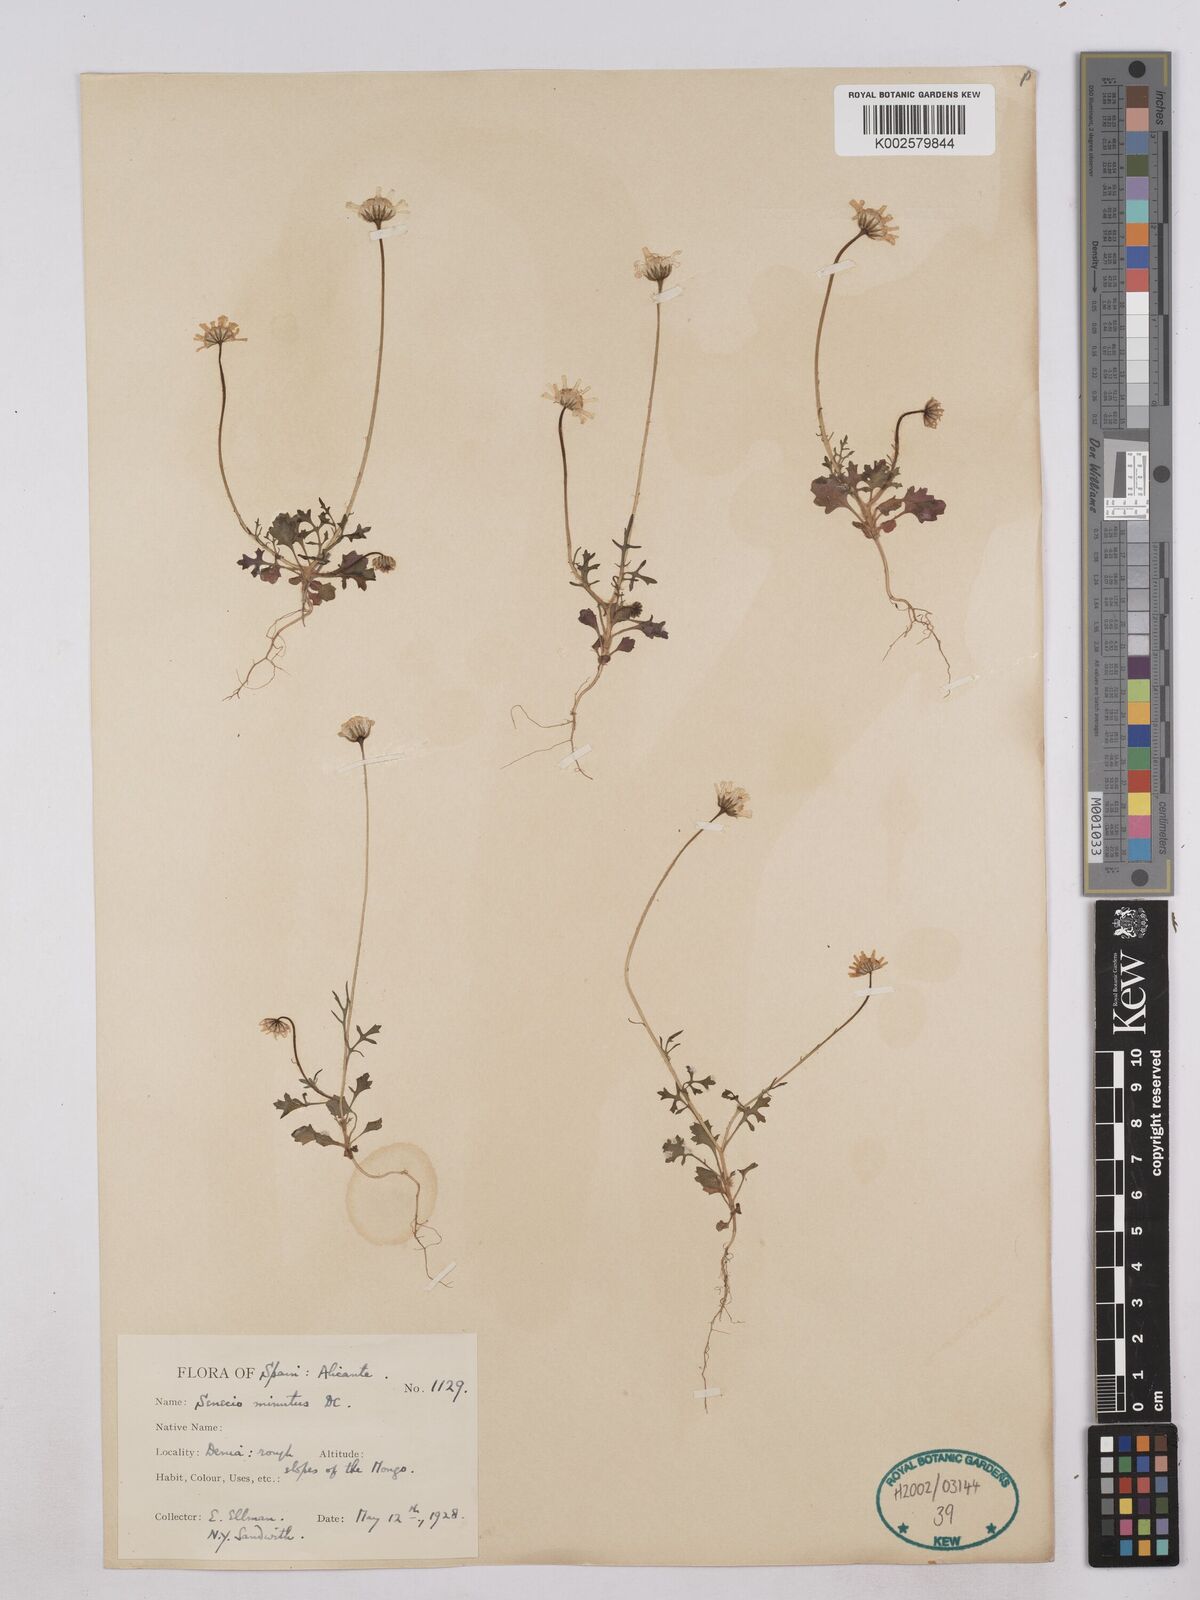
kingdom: Plantae
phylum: Tracheophyta
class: Magnoliopsida
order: Asterales
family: Asteraceae
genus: Jacobaea
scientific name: Jacobaea minuta
